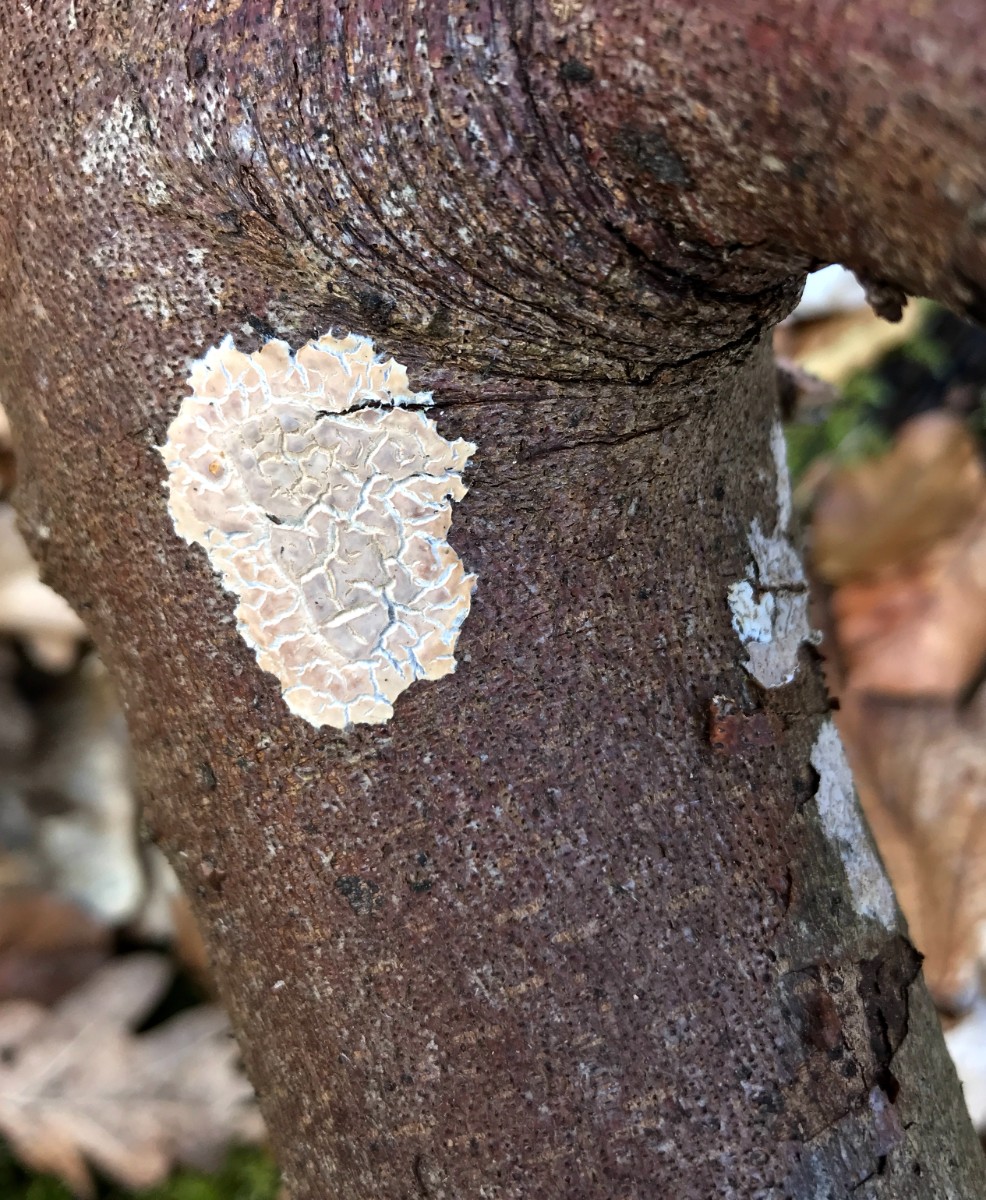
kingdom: Fungi
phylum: Basidiomycota
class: Agaricomycetes
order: Agaricales
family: Physalacriaceae
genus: Cylindrobasidium
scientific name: Cylindrobasidium evolvens
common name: sprækkehinde
